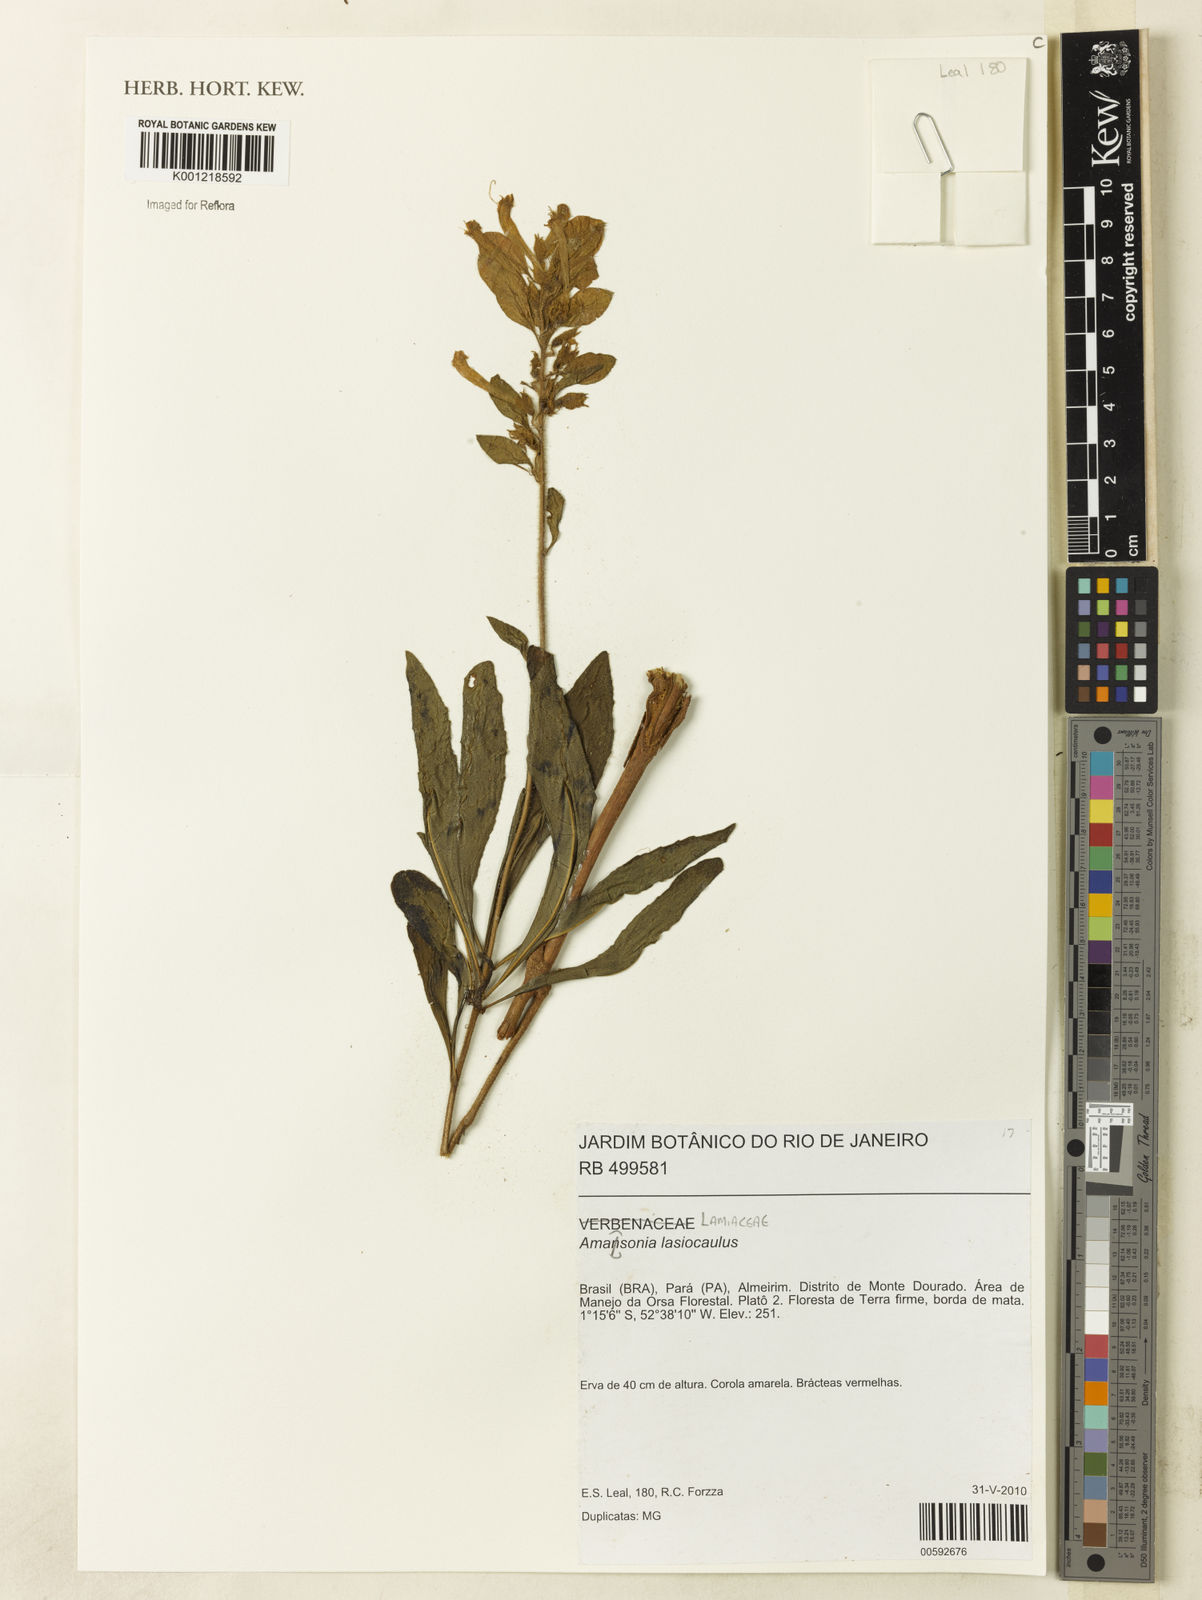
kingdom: Plantae
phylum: Tracheophyta
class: Magnoliopsida
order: Lamiales
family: Lamiaceae
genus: Amasonia
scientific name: Amasonia
